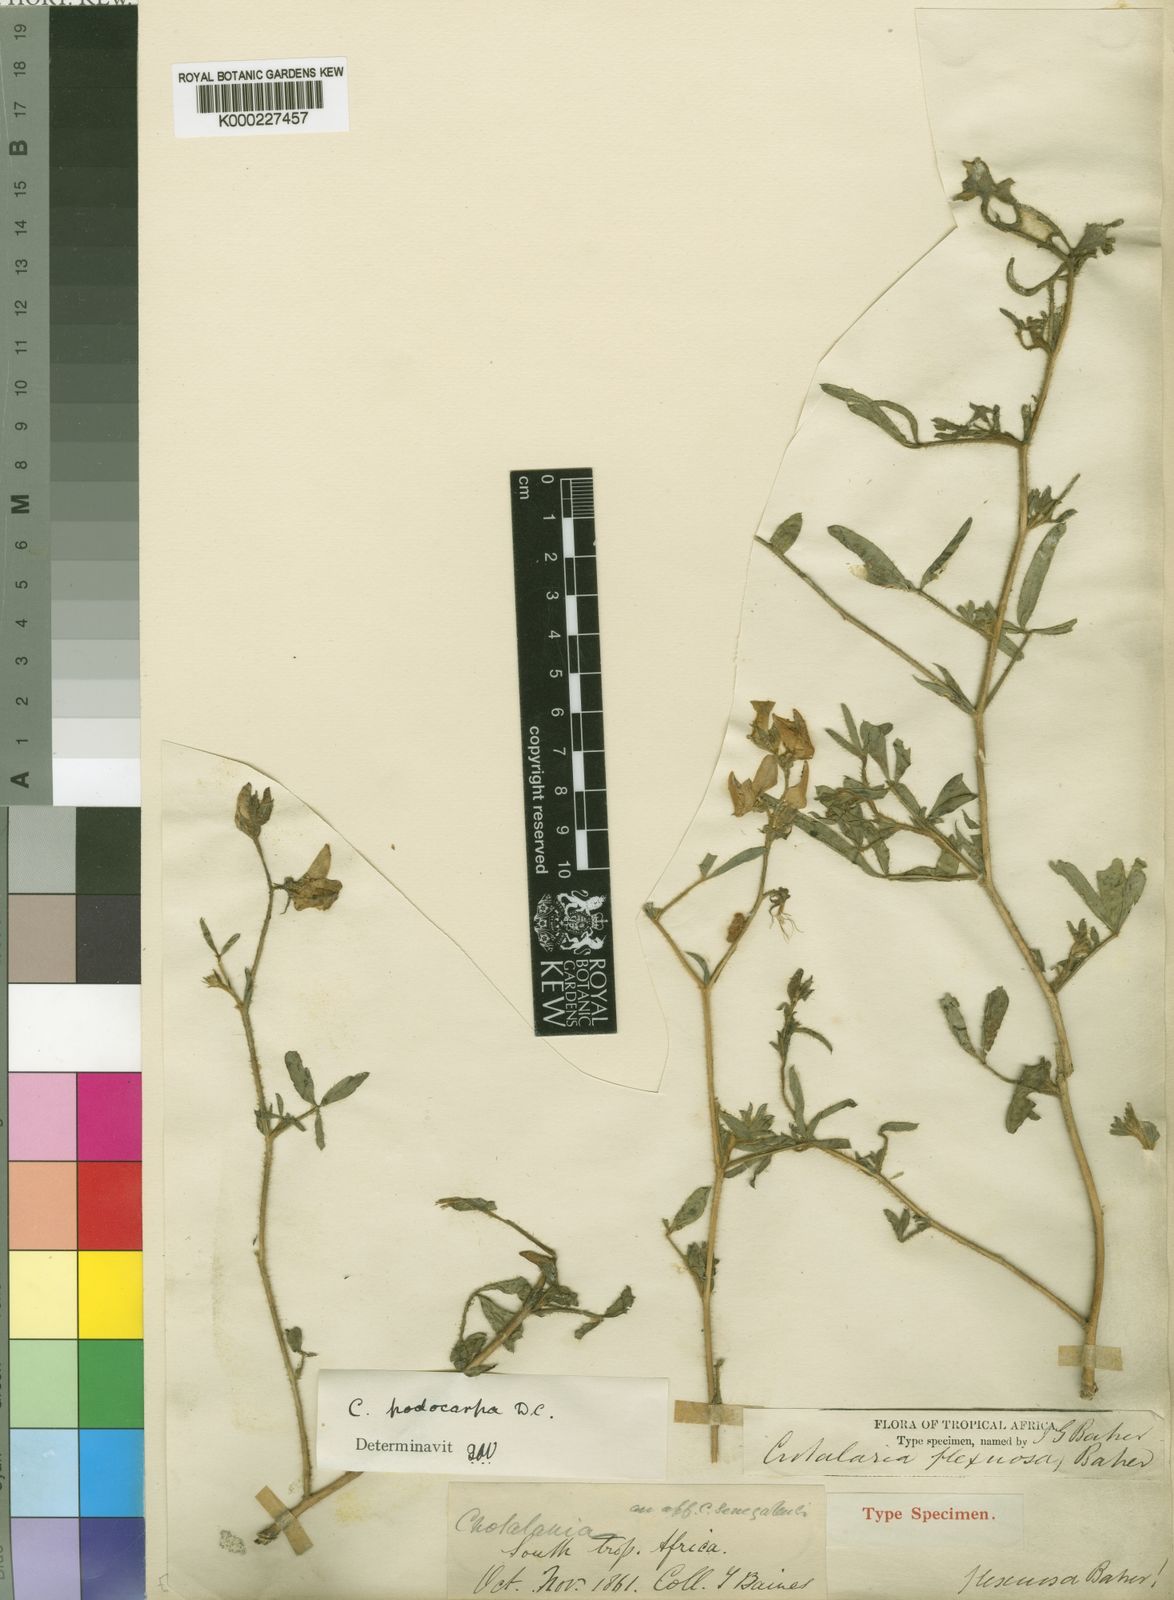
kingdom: Plantae
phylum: Tracheophyta
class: Magnoliopsida
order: Fabales
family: Fabaceae
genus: Crotalaria
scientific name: Crotalaria podocarpa
